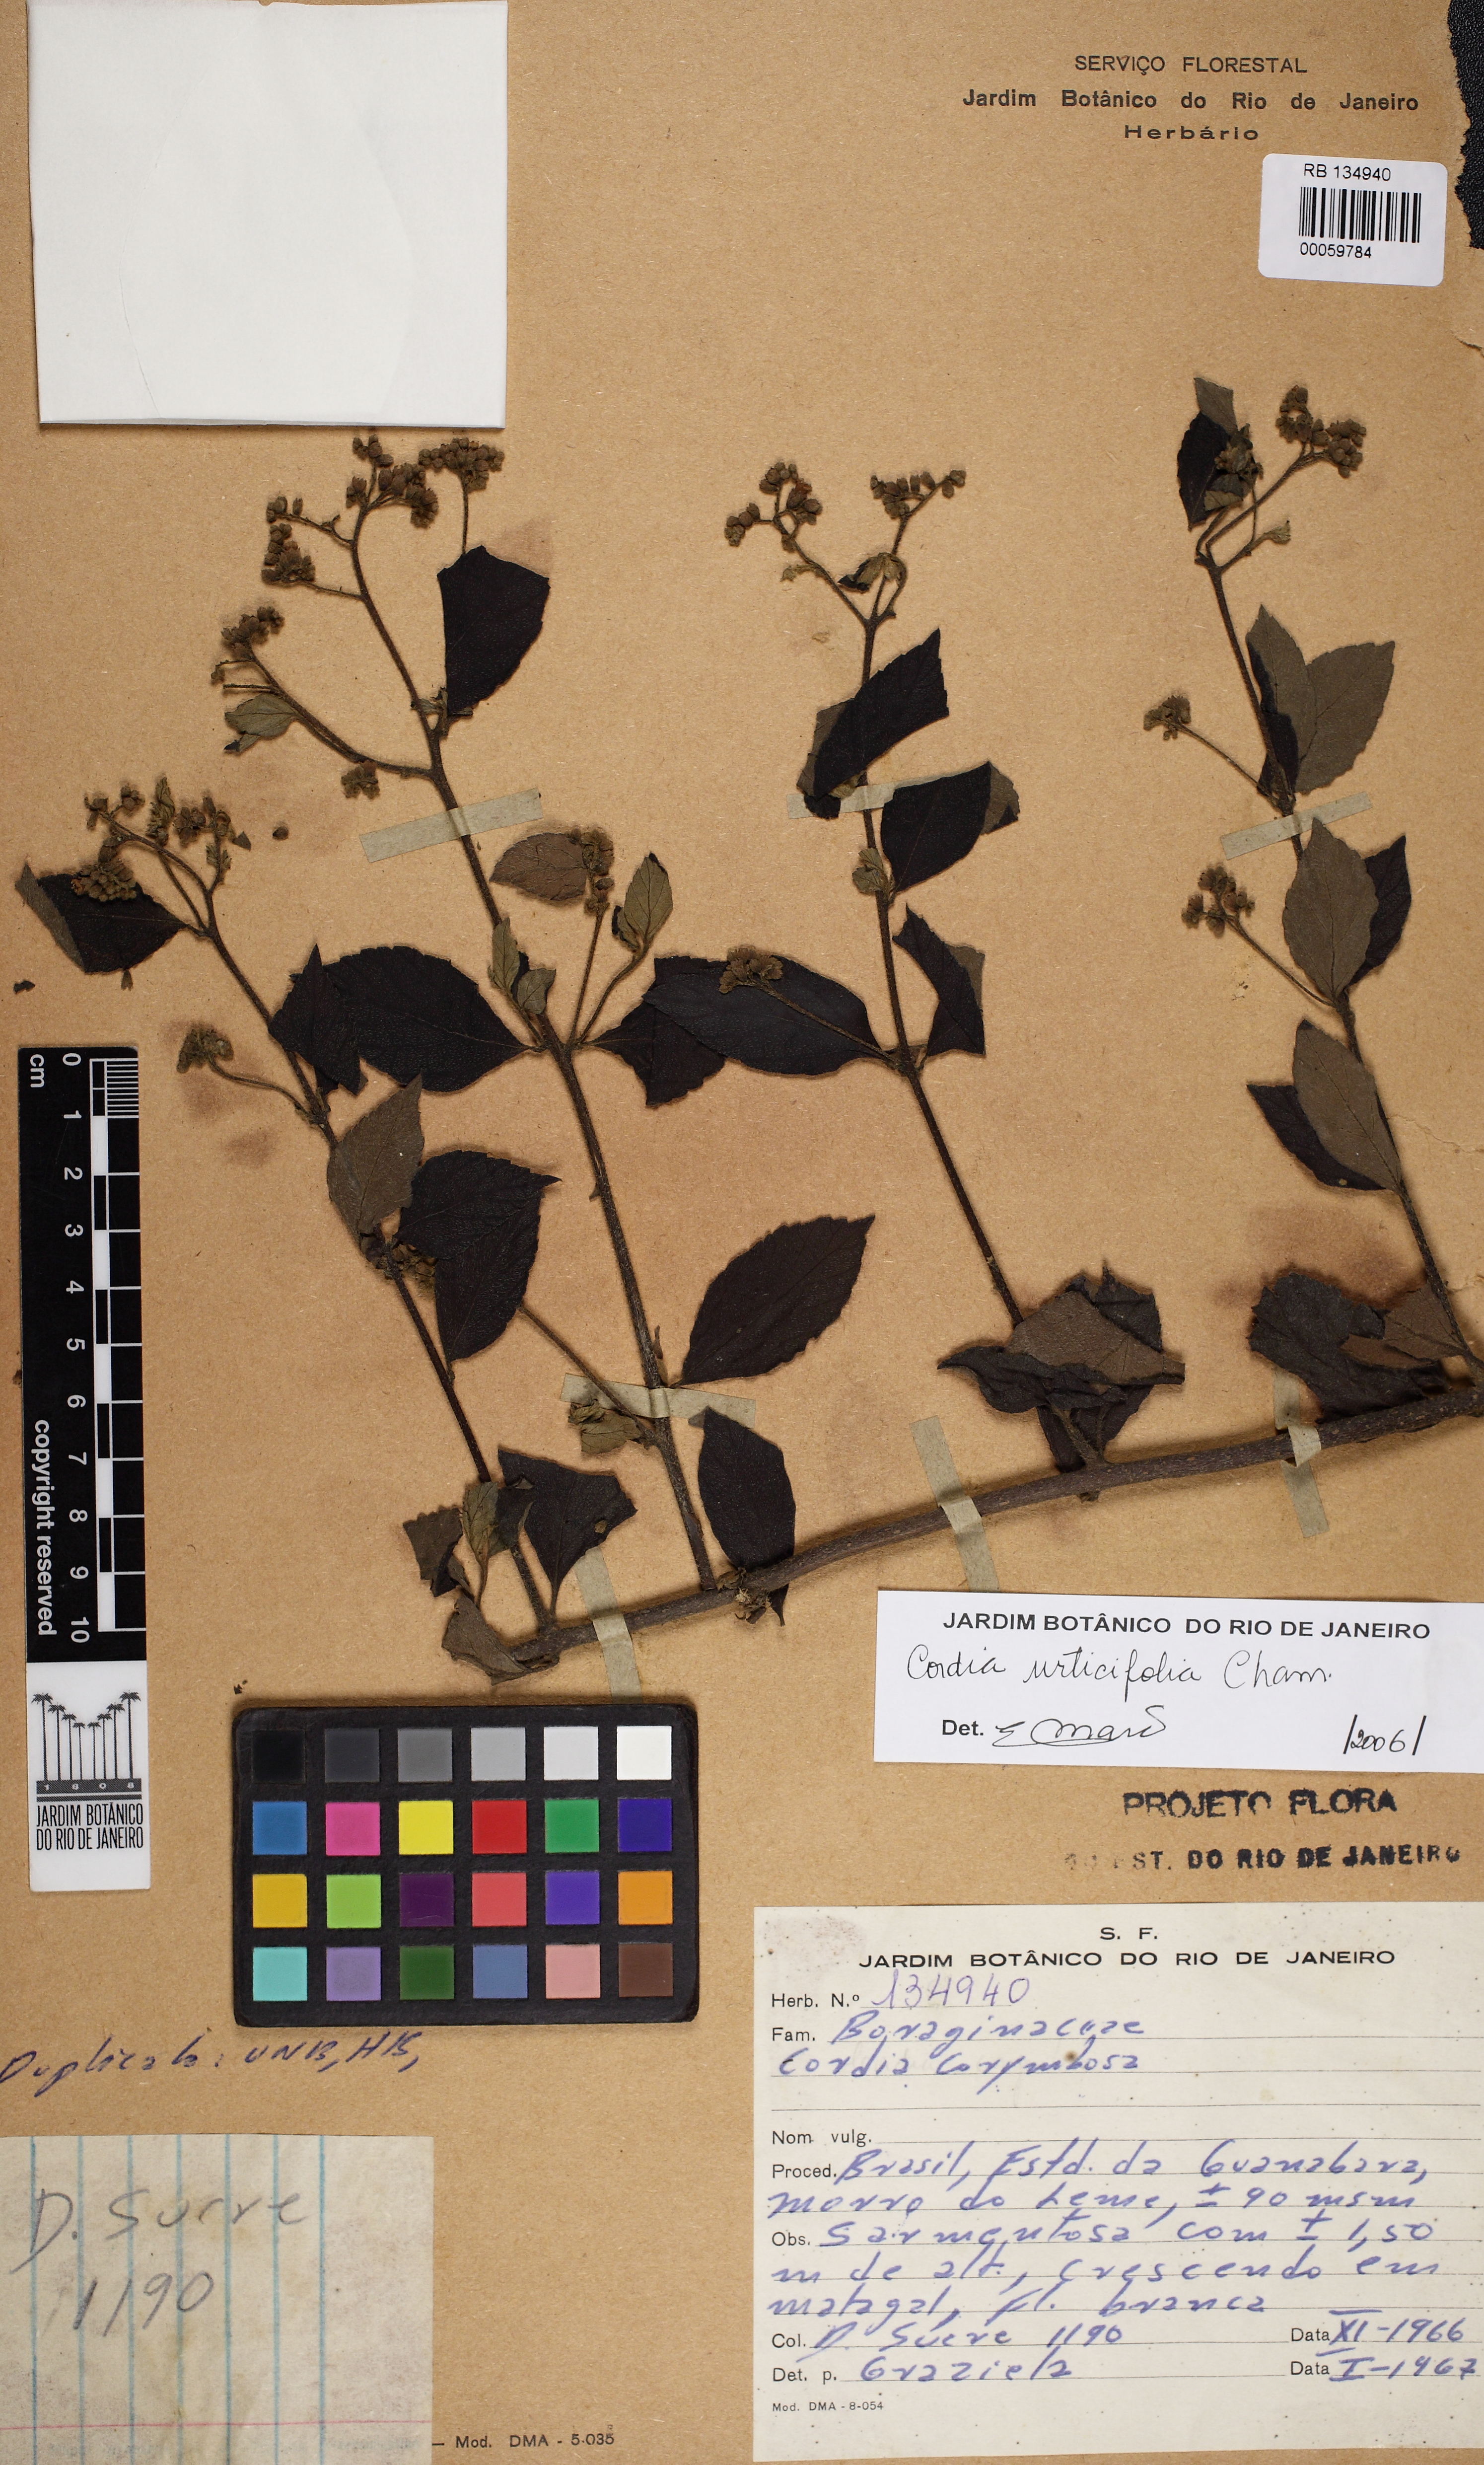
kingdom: Plantae
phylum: Tracheophyta
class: Magnoliopsida
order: Boraginales
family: Cordiaceae
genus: Varronia
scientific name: Varronia polycephala
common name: Black-sage
